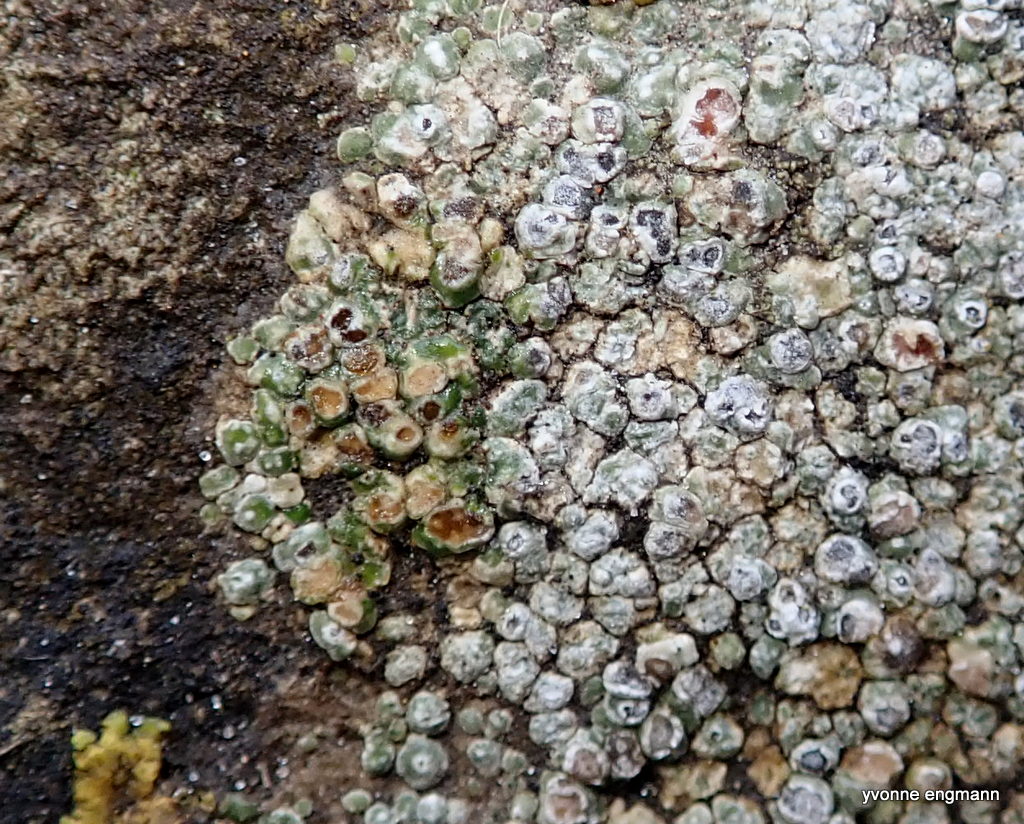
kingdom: Fungi
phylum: Ascomycota
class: Lecanoromycetes
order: Pertusariales
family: Megasporaceae
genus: Circinaria
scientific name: Circinaria contorta
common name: indviklet hulskivelav
